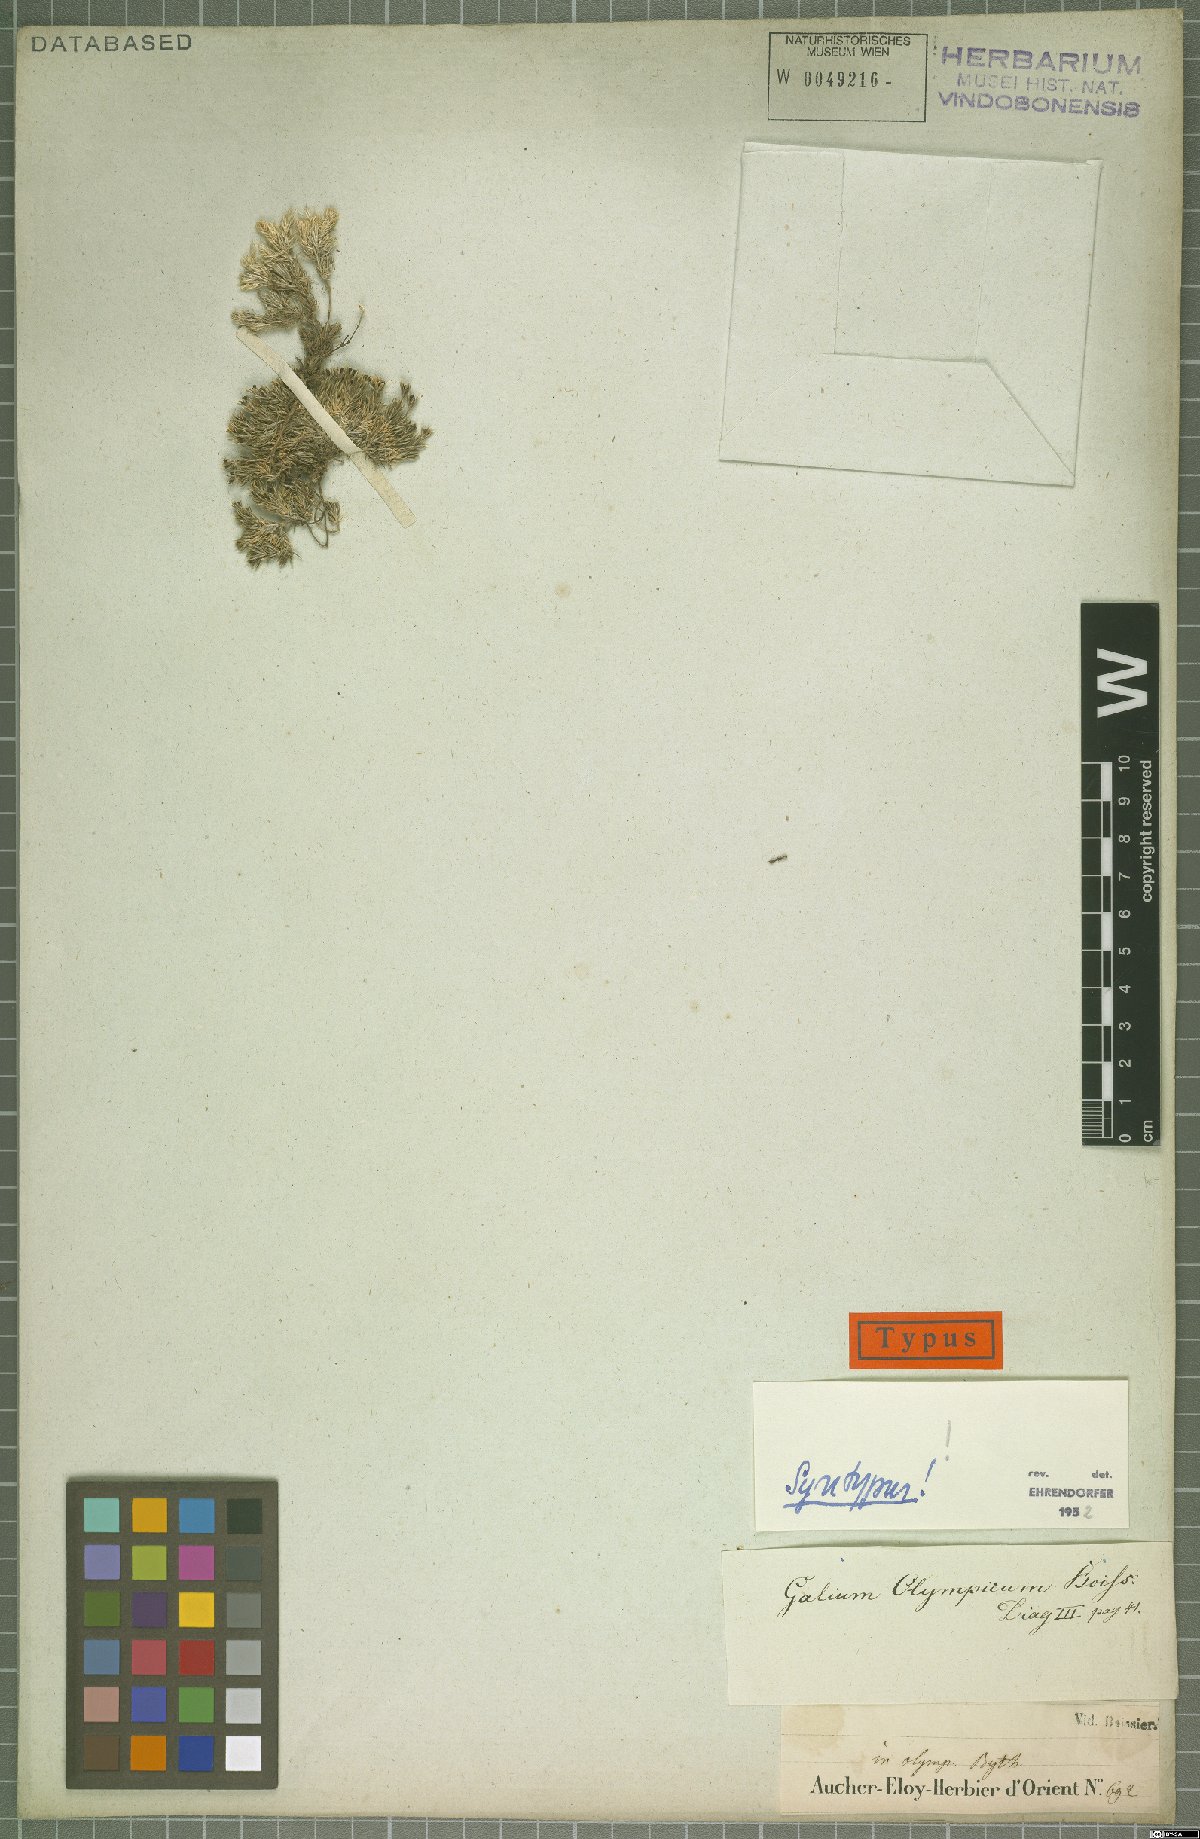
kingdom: Plantae
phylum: Tracheophyta
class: Magnoliopsida
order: Gentianales
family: Rubiaceae
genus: Galium
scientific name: Galium olympicum
